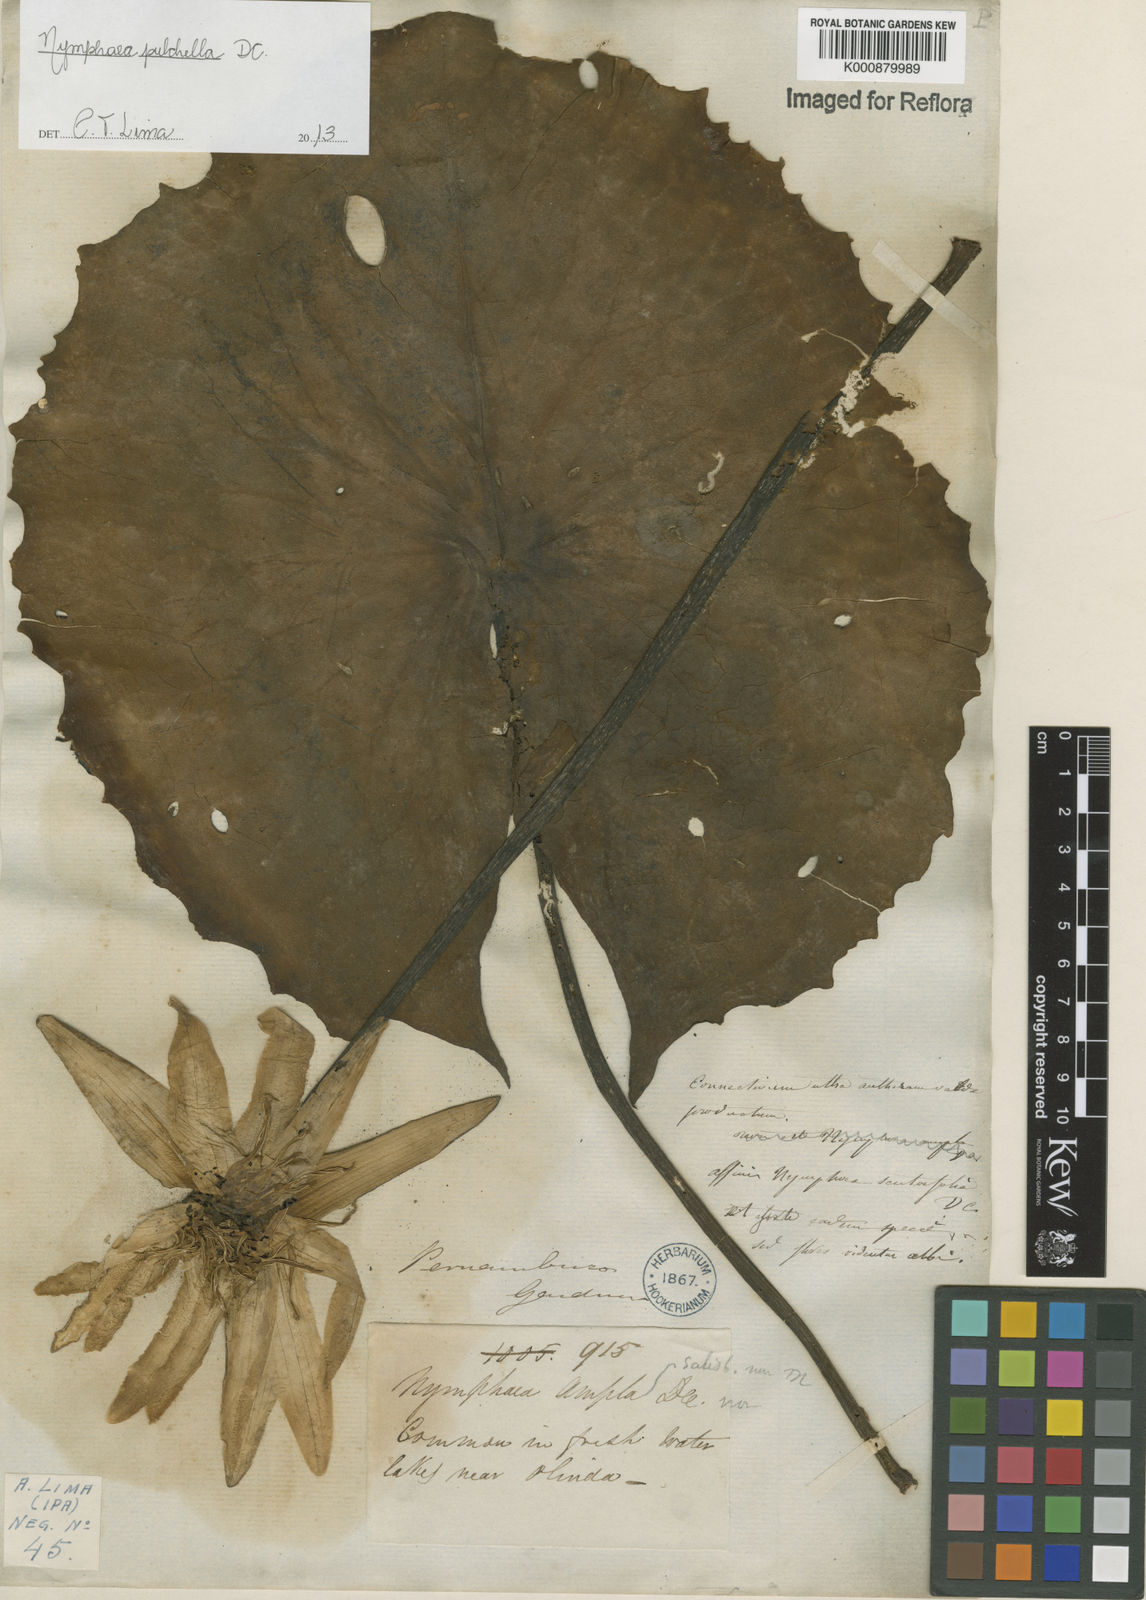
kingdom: Plantae
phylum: Tracheophyta
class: Magnoliopsida
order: Nymphaeales
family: Nymphaeaceae
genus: Nymphaea
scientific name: Nymphaea pulchella
